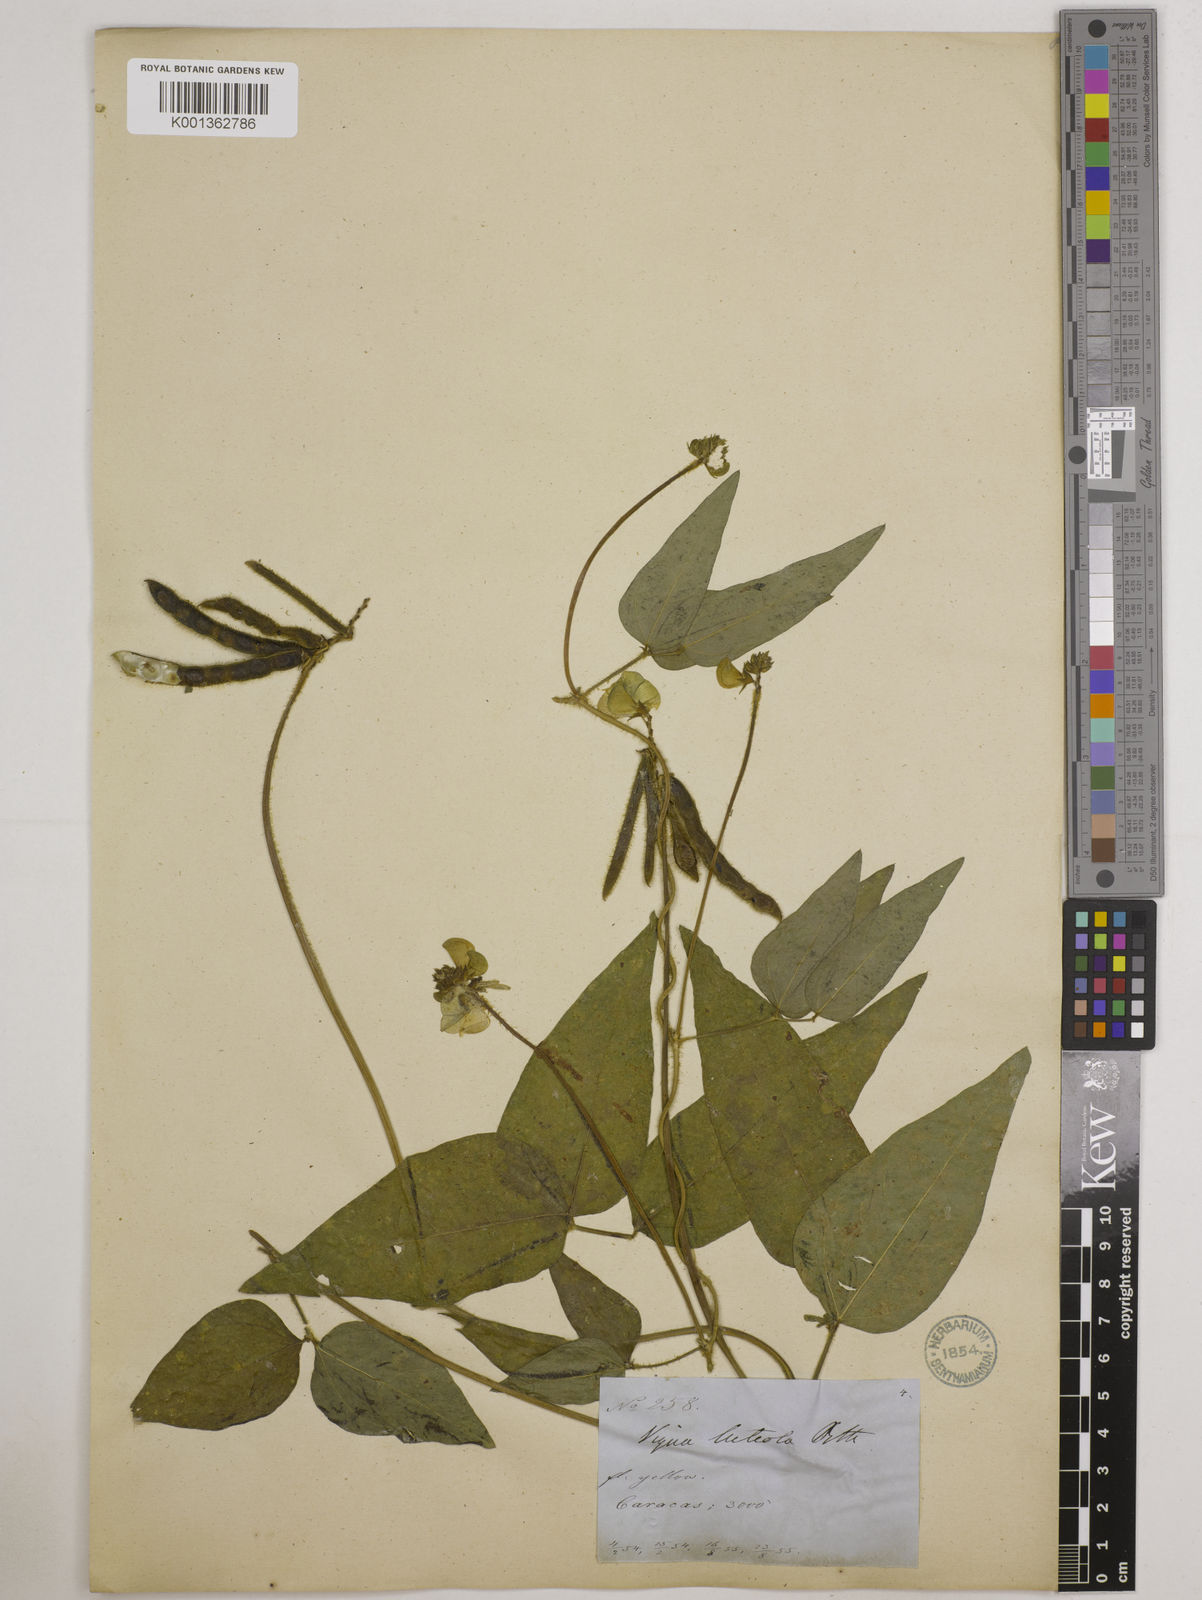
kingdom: Plantae
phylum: Tracheophyta
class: Magnoliopsida
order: Fabales
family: Fabaceae
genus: Vigna
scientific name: Vigna luteola
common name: Hairypod cowpea
